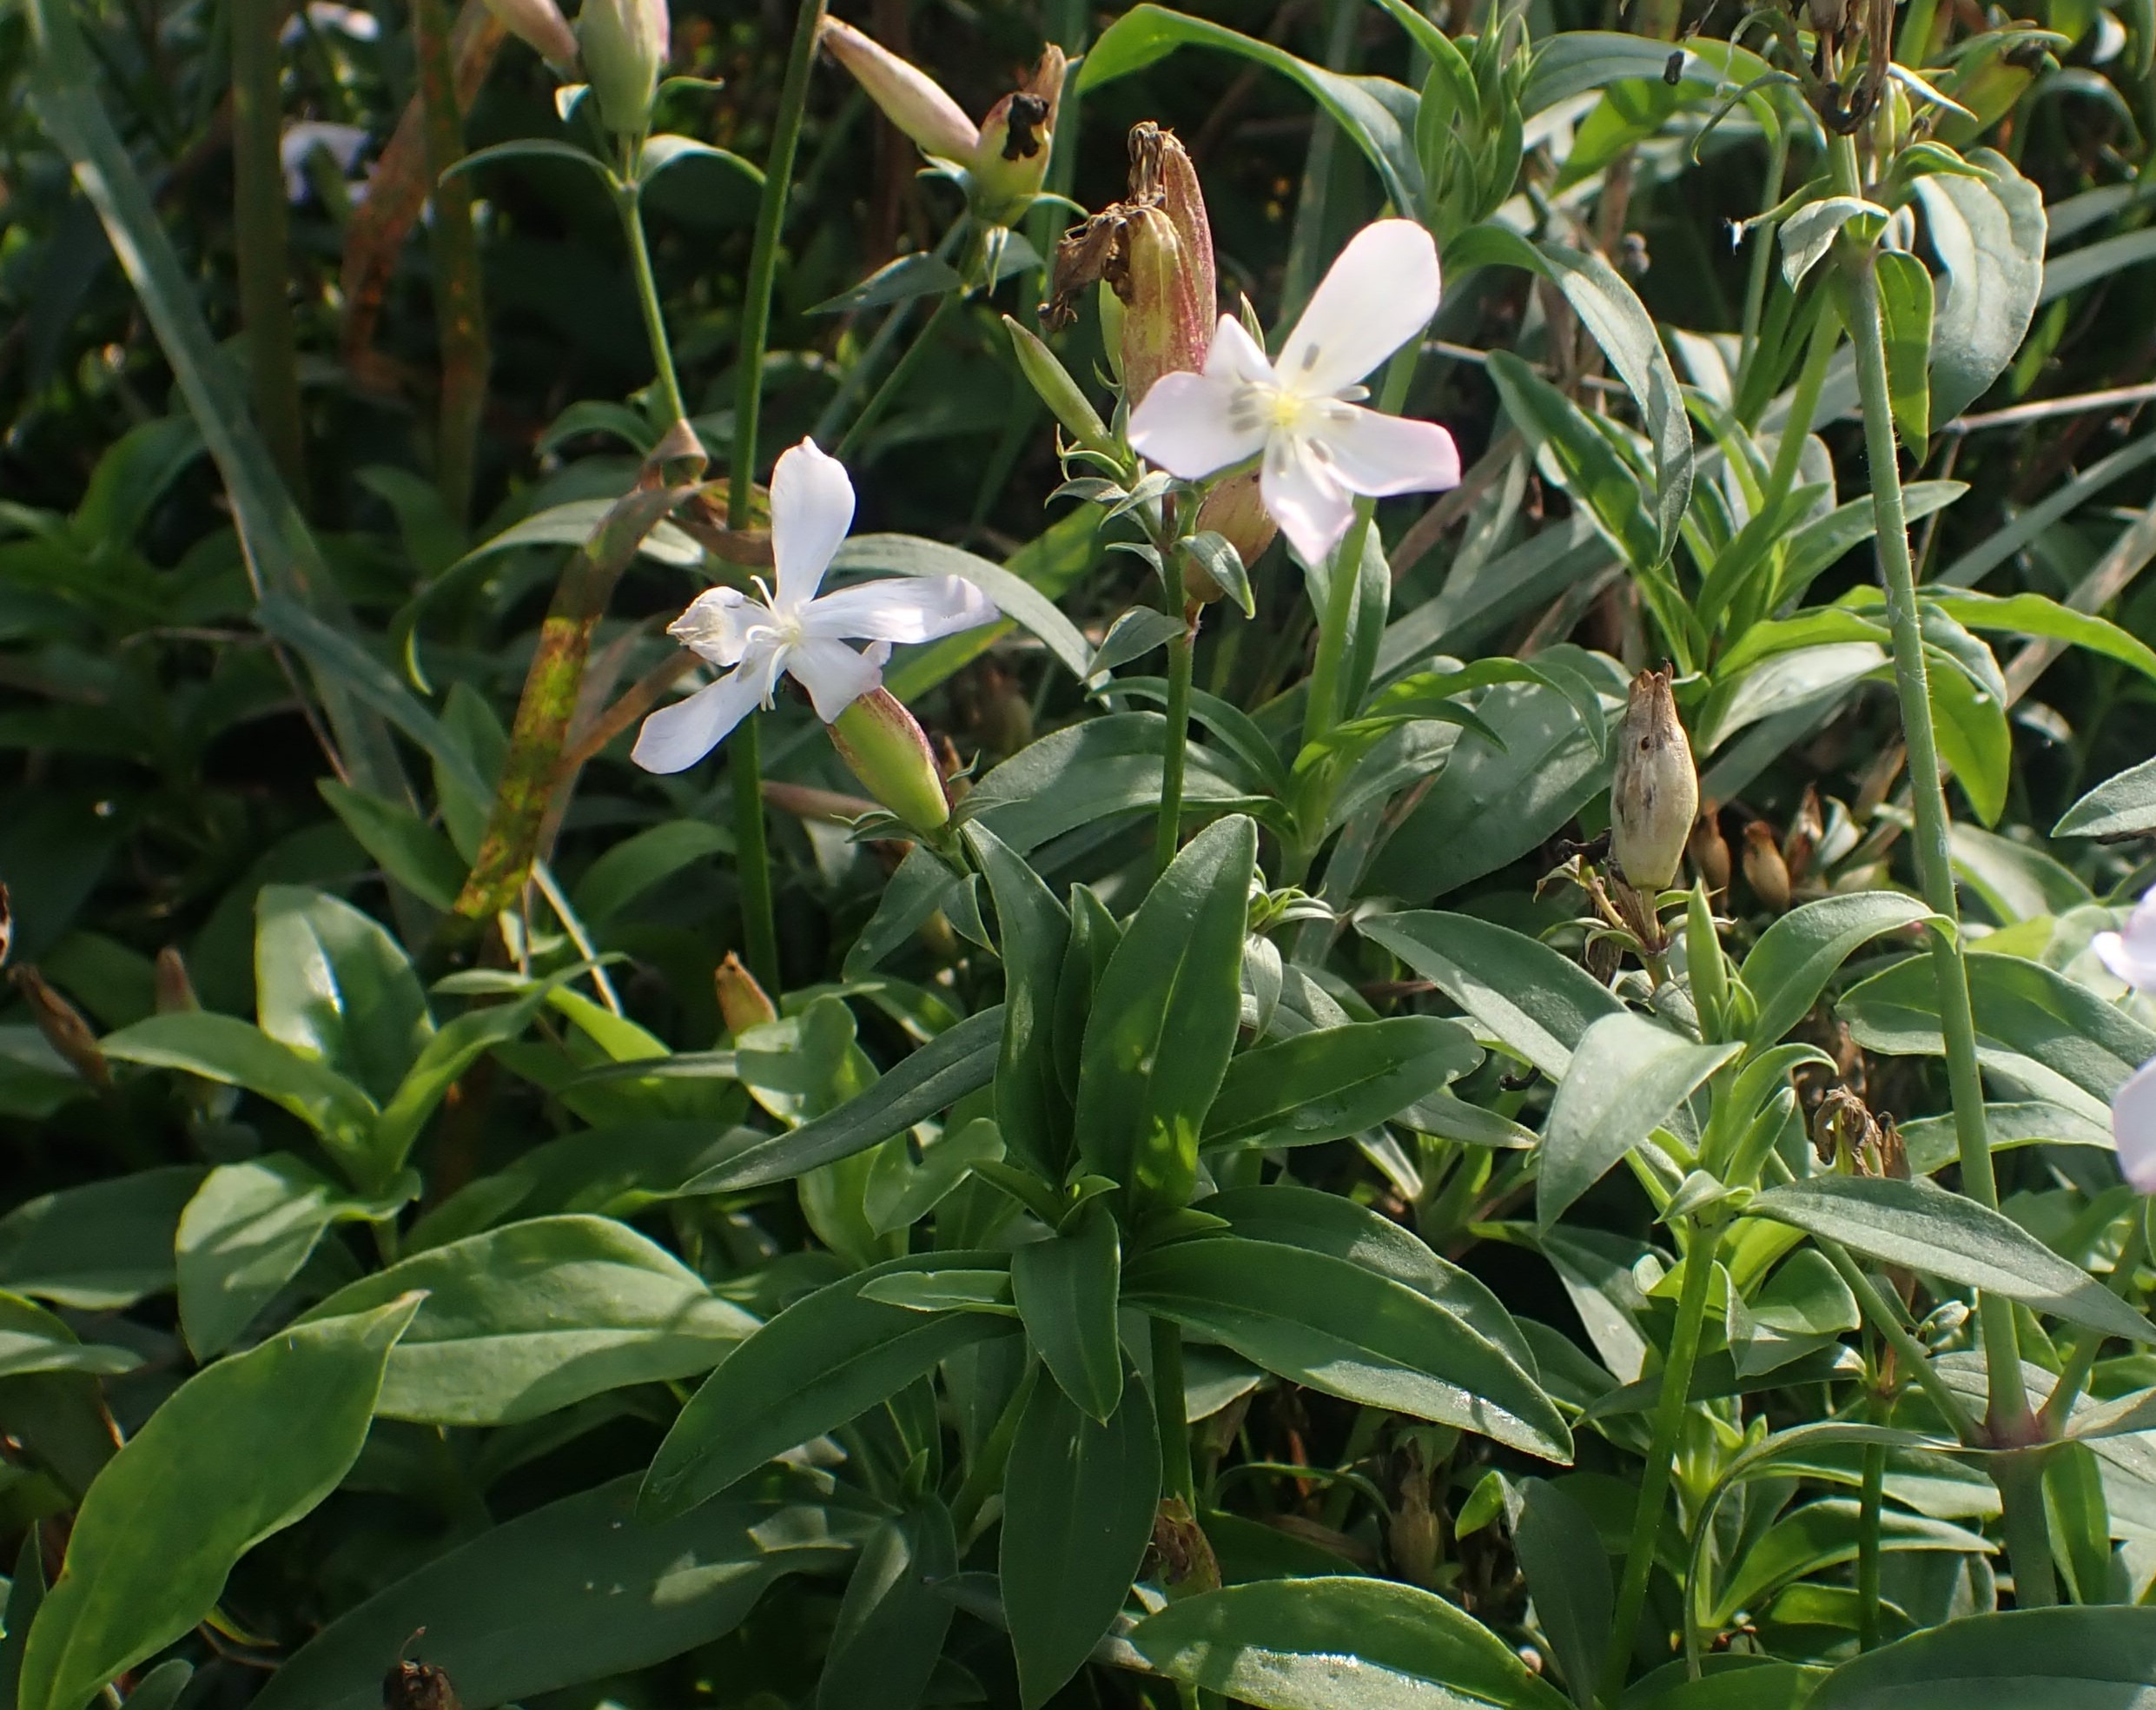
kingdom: Plantae
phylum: Tracheophyta
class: Magnoliopsida
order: Caryophyllales
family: Caryophyllaceae
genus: Saponaria
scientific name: Saponaria officinalis
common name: Sæbeurt
